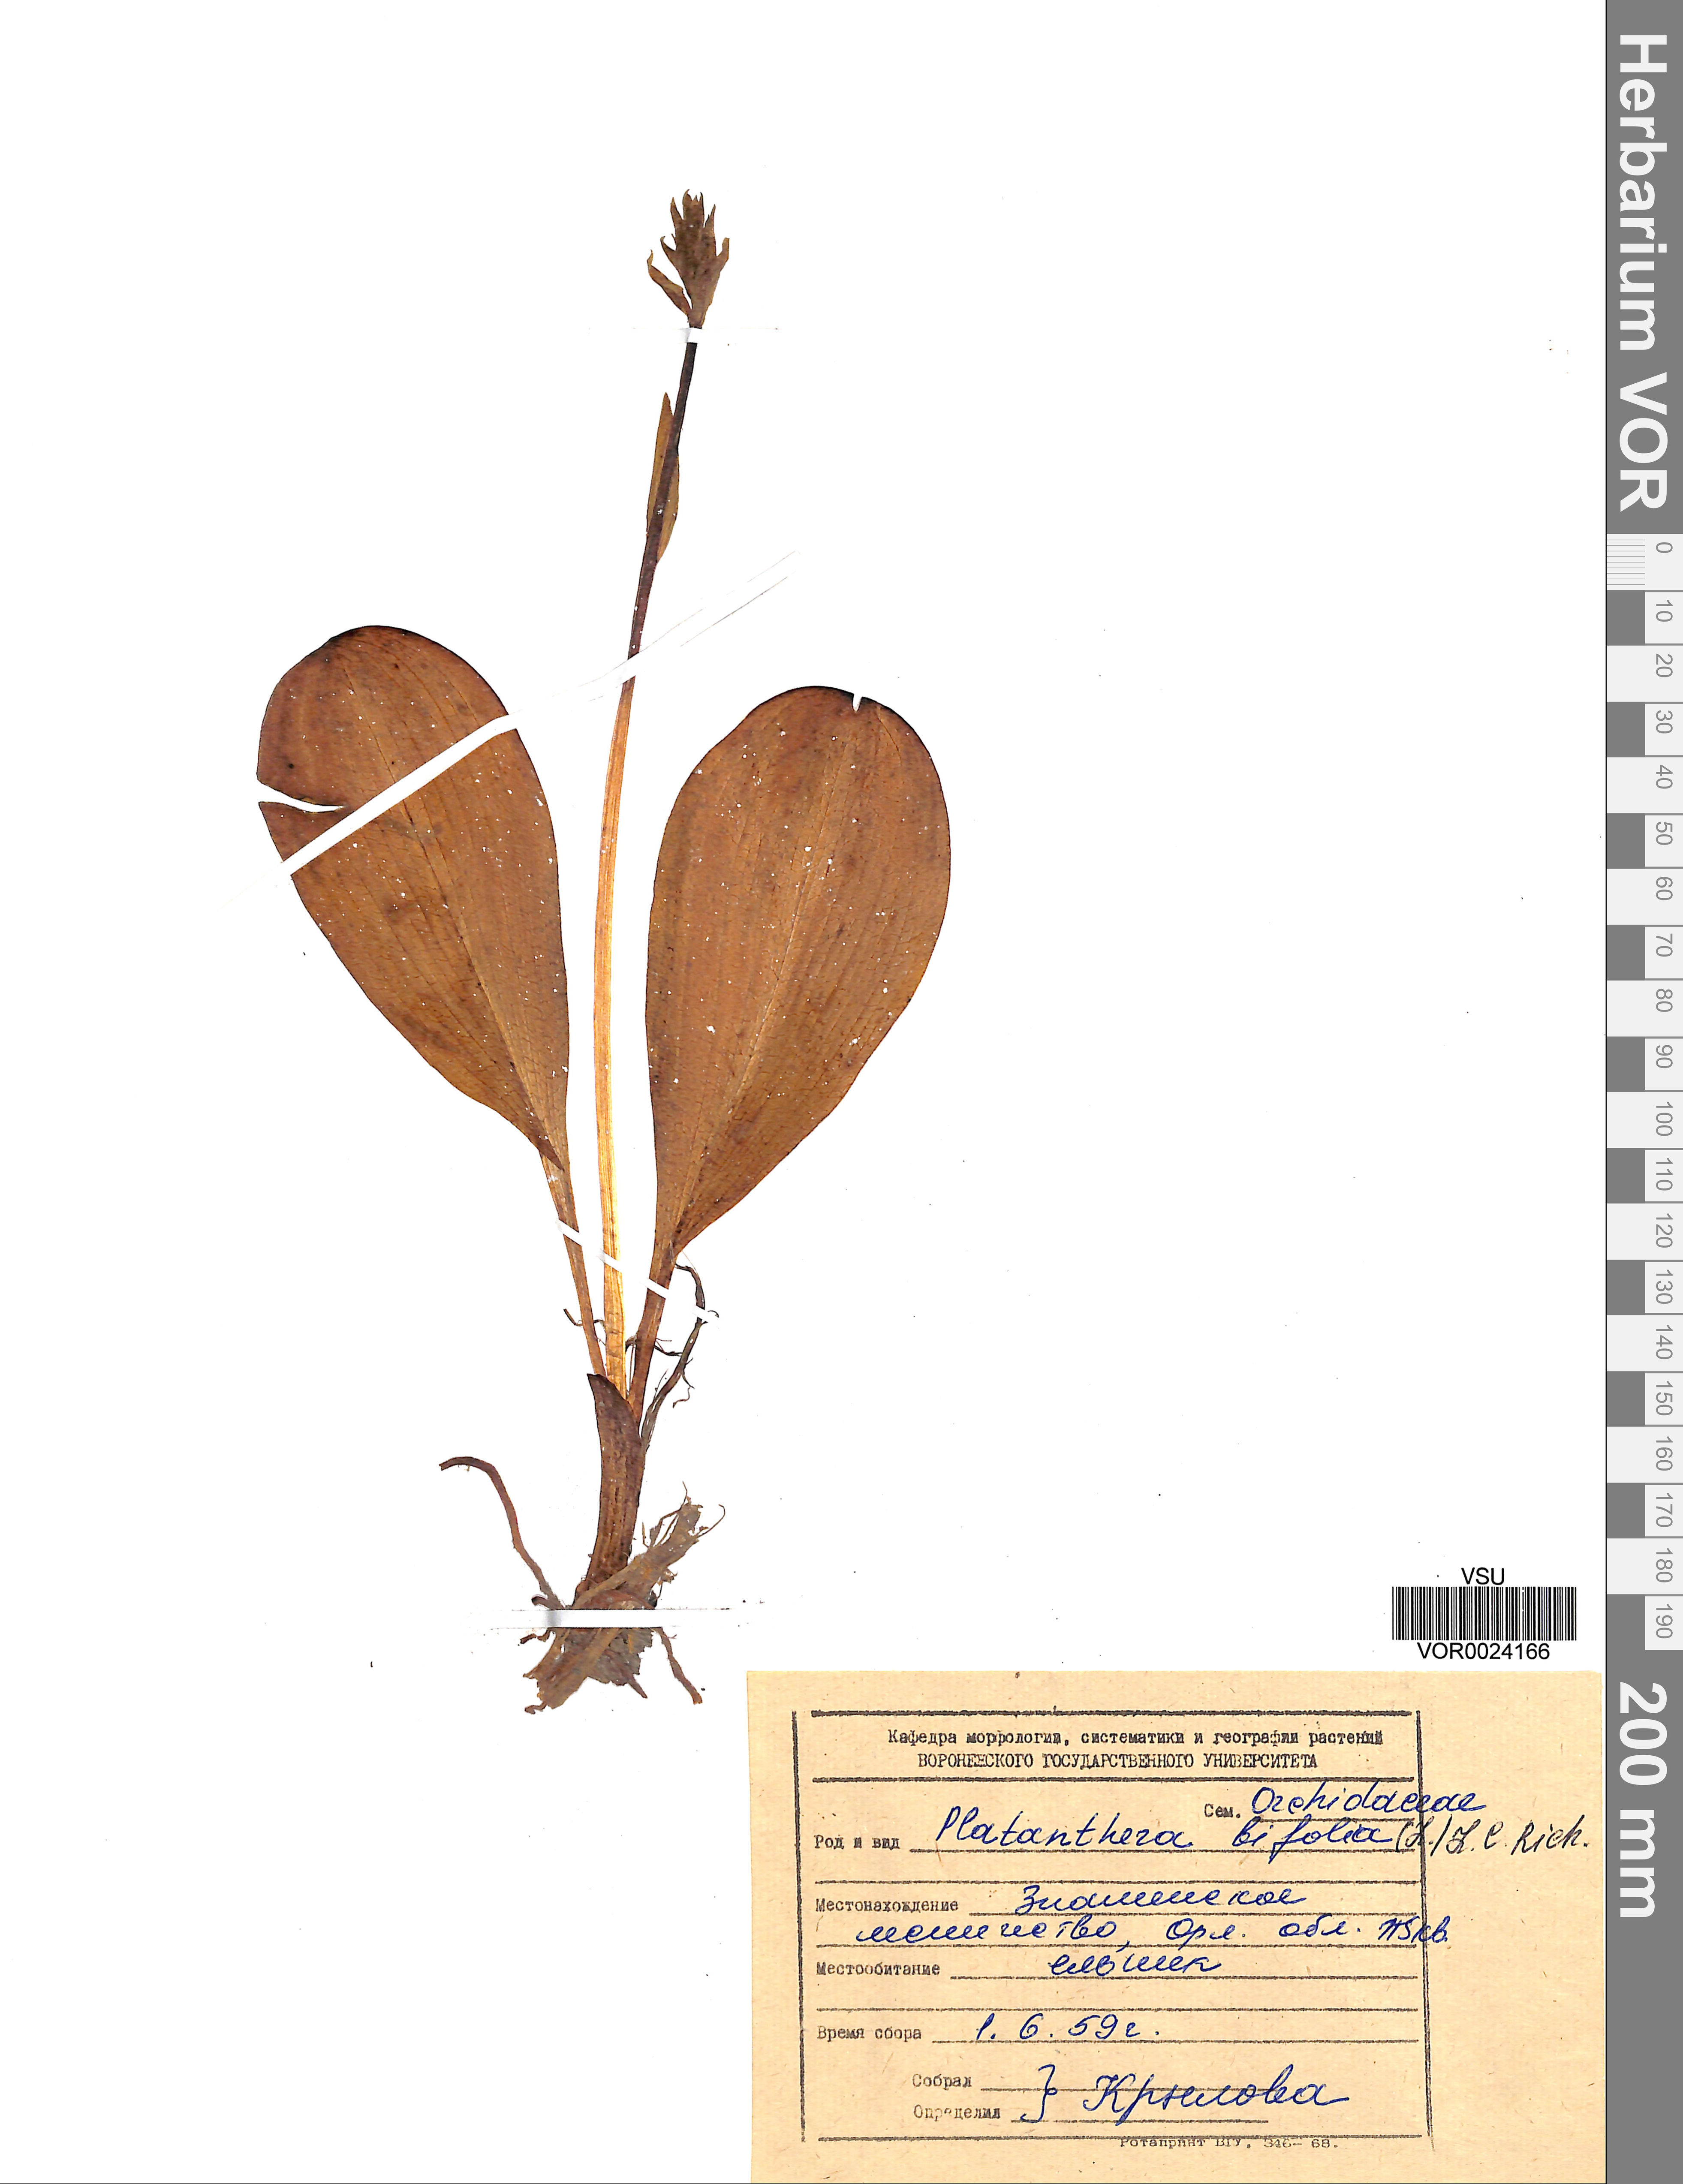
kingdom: Plantae
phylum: Tracheophyta
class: Liliopsida
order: Asparagales
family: Orchidaceae
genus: Platanthera
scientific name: Platanthera bifolia
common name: Lesser butterfly-orchid
